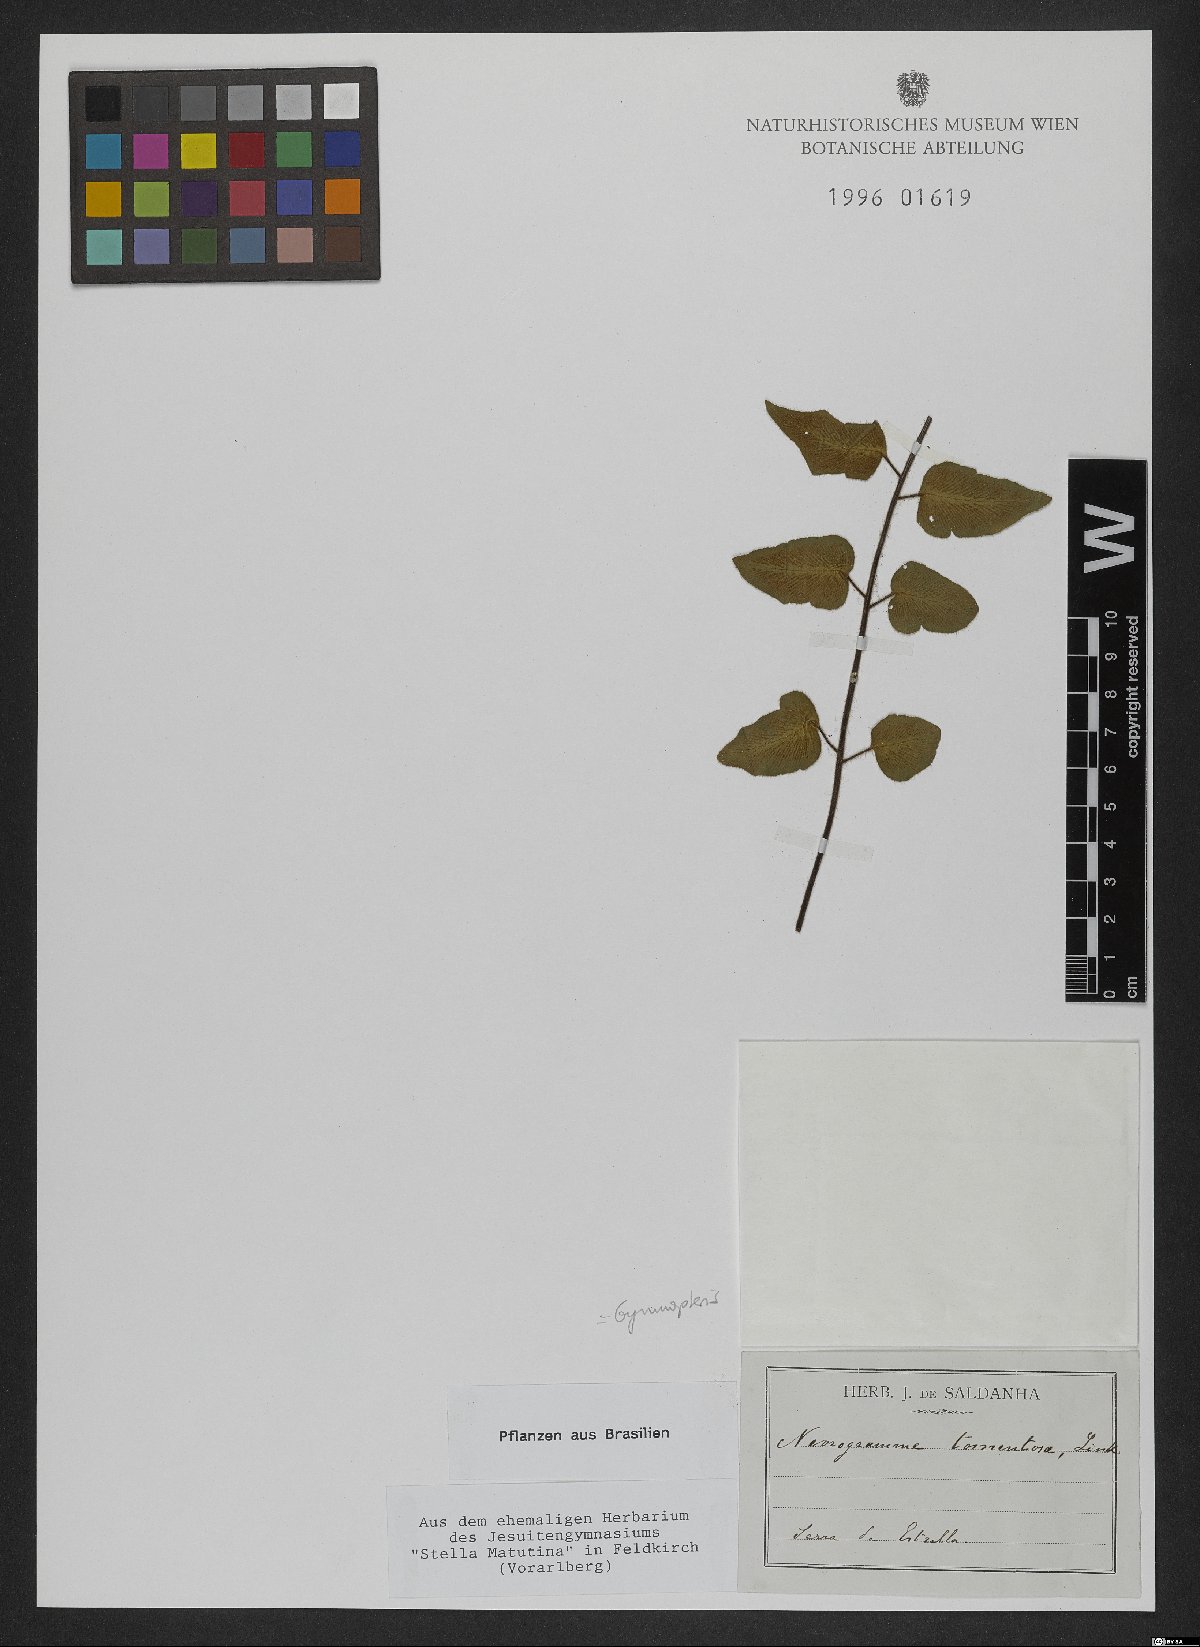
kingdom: Plantae
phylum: Tracheophyta
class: Polypodiopsida
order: Polypodiales
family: Pteridaceae
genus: Hemionitis
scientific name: Hemionitis tomentosa
